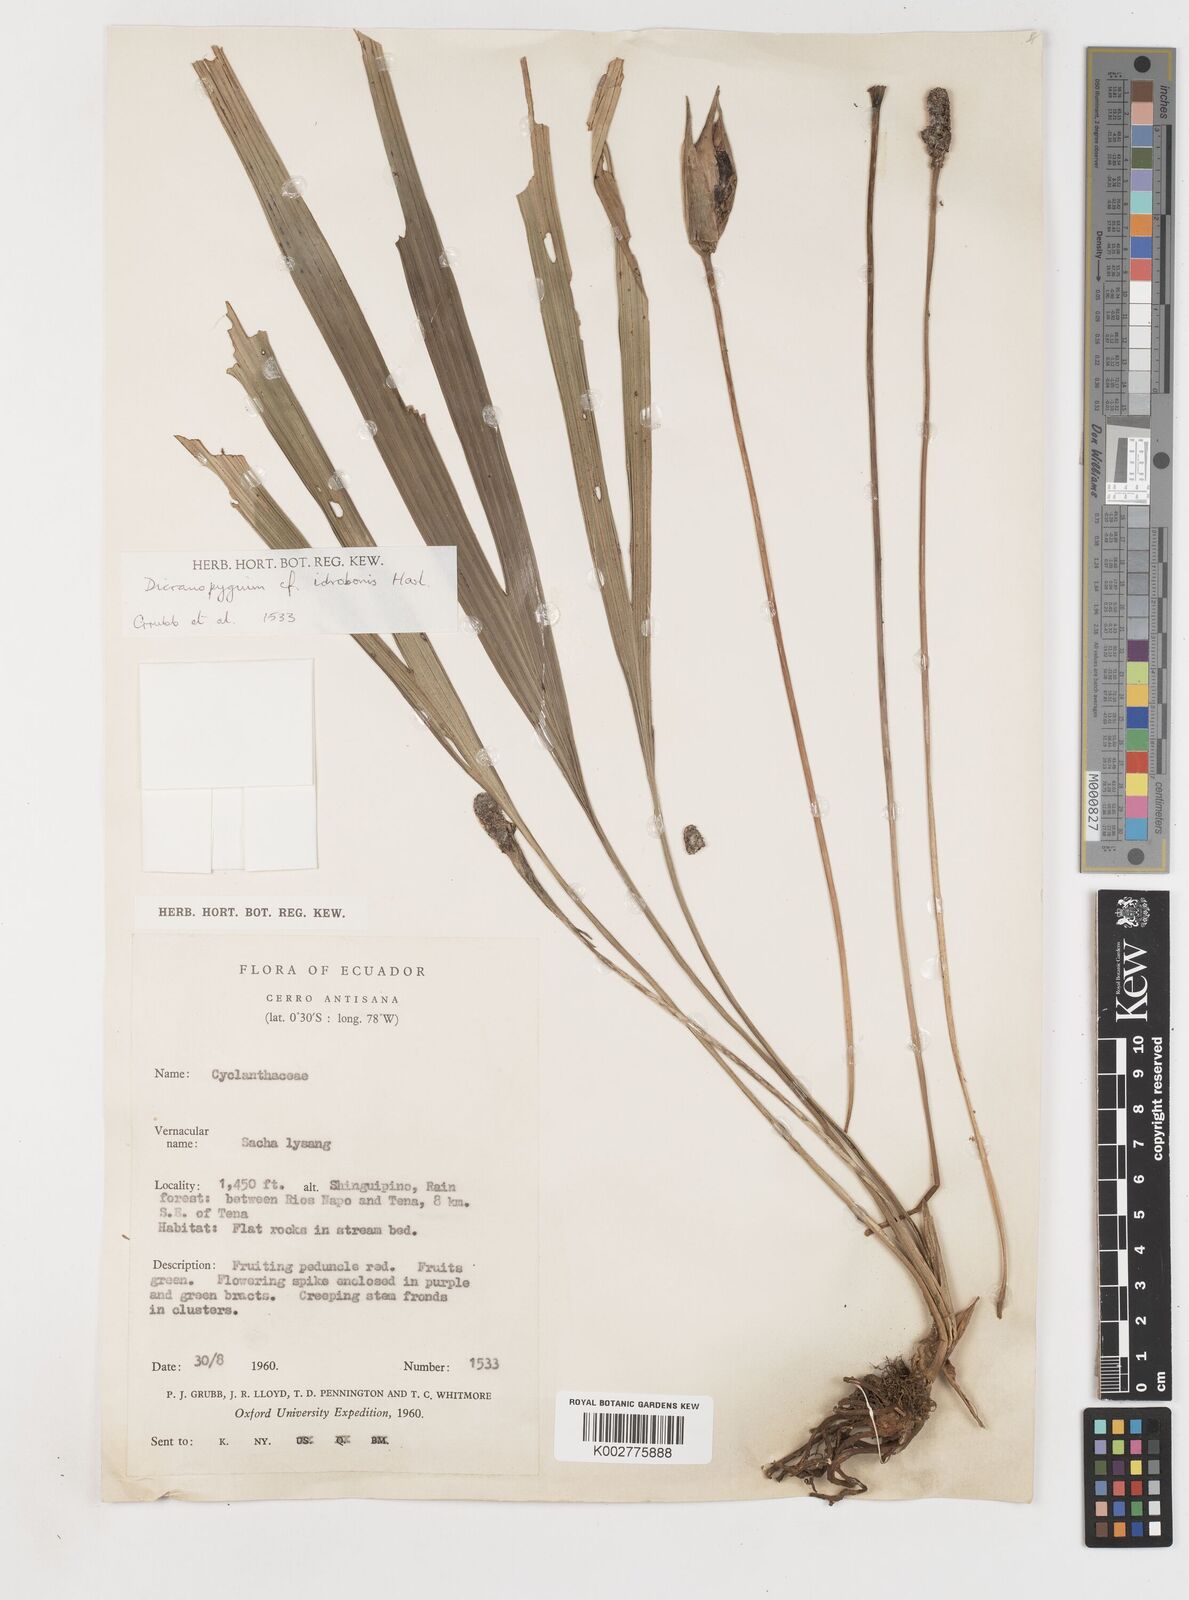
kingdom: Plantae
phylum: Tracheophyta
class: Liliopsida
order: Pandanales
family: Cyclanthaceae
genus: Dicranopygium
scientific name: Dicranopygium idrobonis
